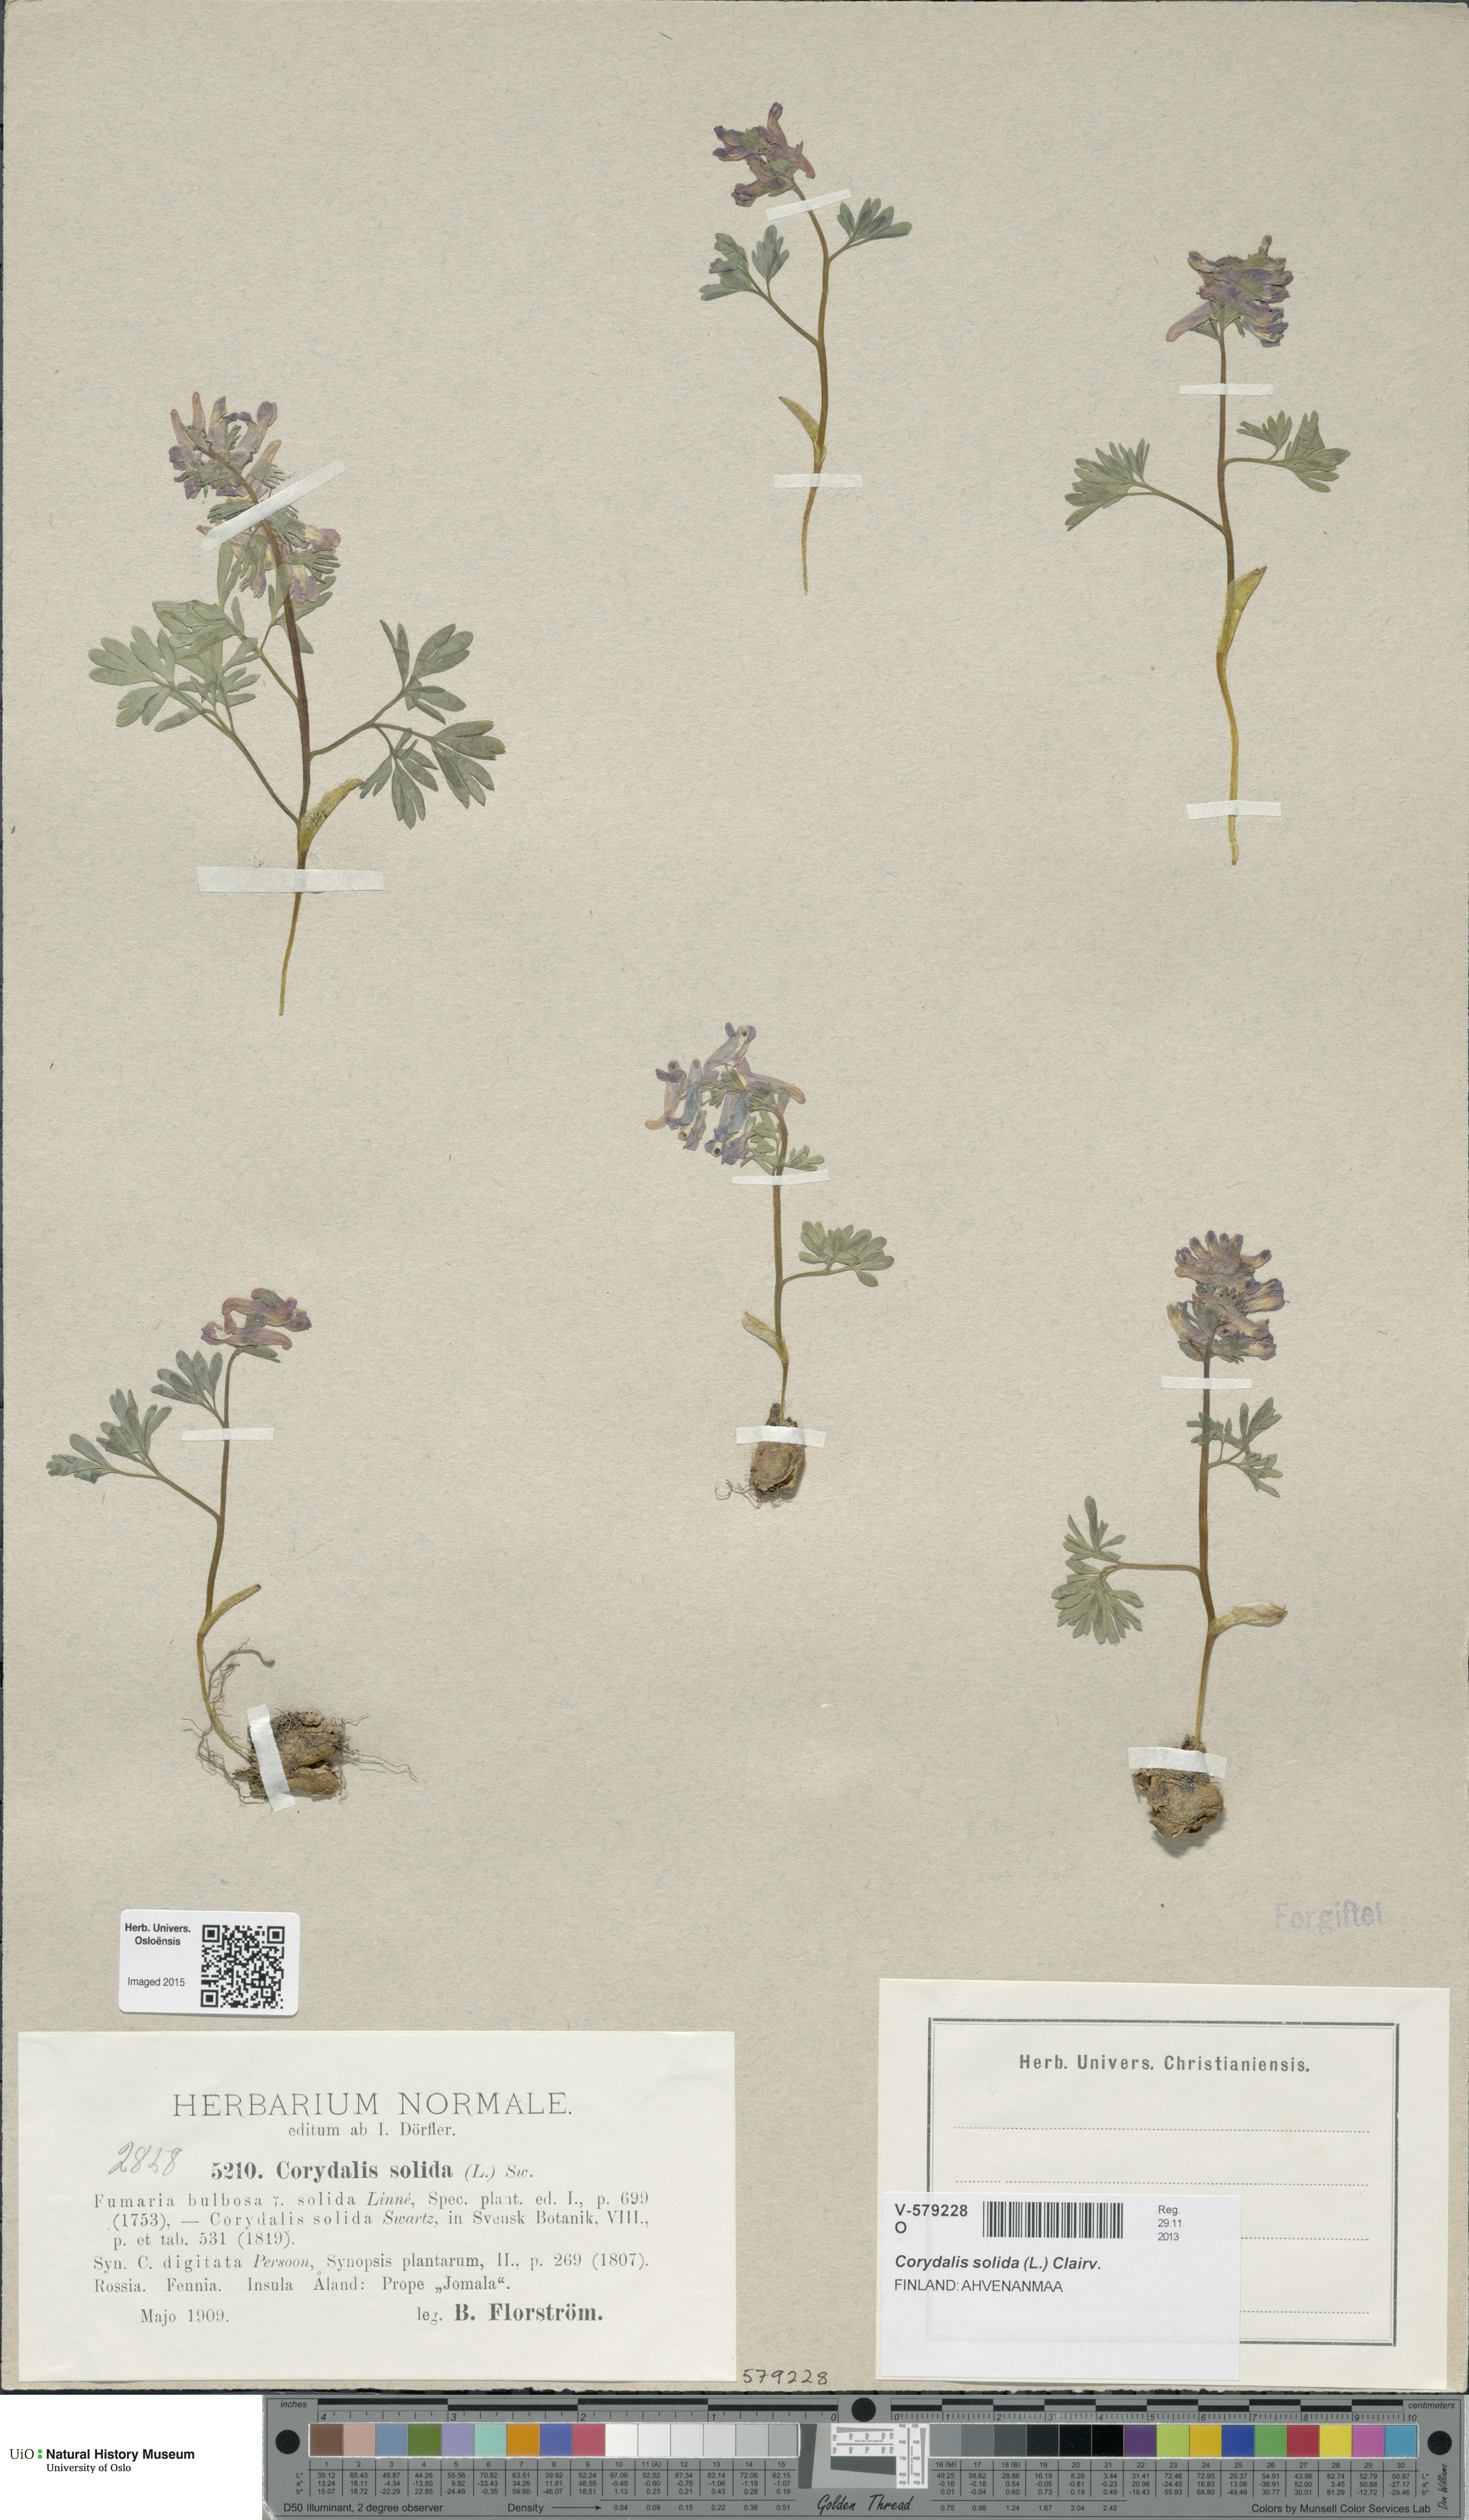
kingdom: Plantae
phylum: Tracheophyta
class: Magnoliopsida
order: Ranunculales
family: Papaveraceae
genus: Corydalis
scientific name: Corydalis solida
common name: Bird-in-a-bush
